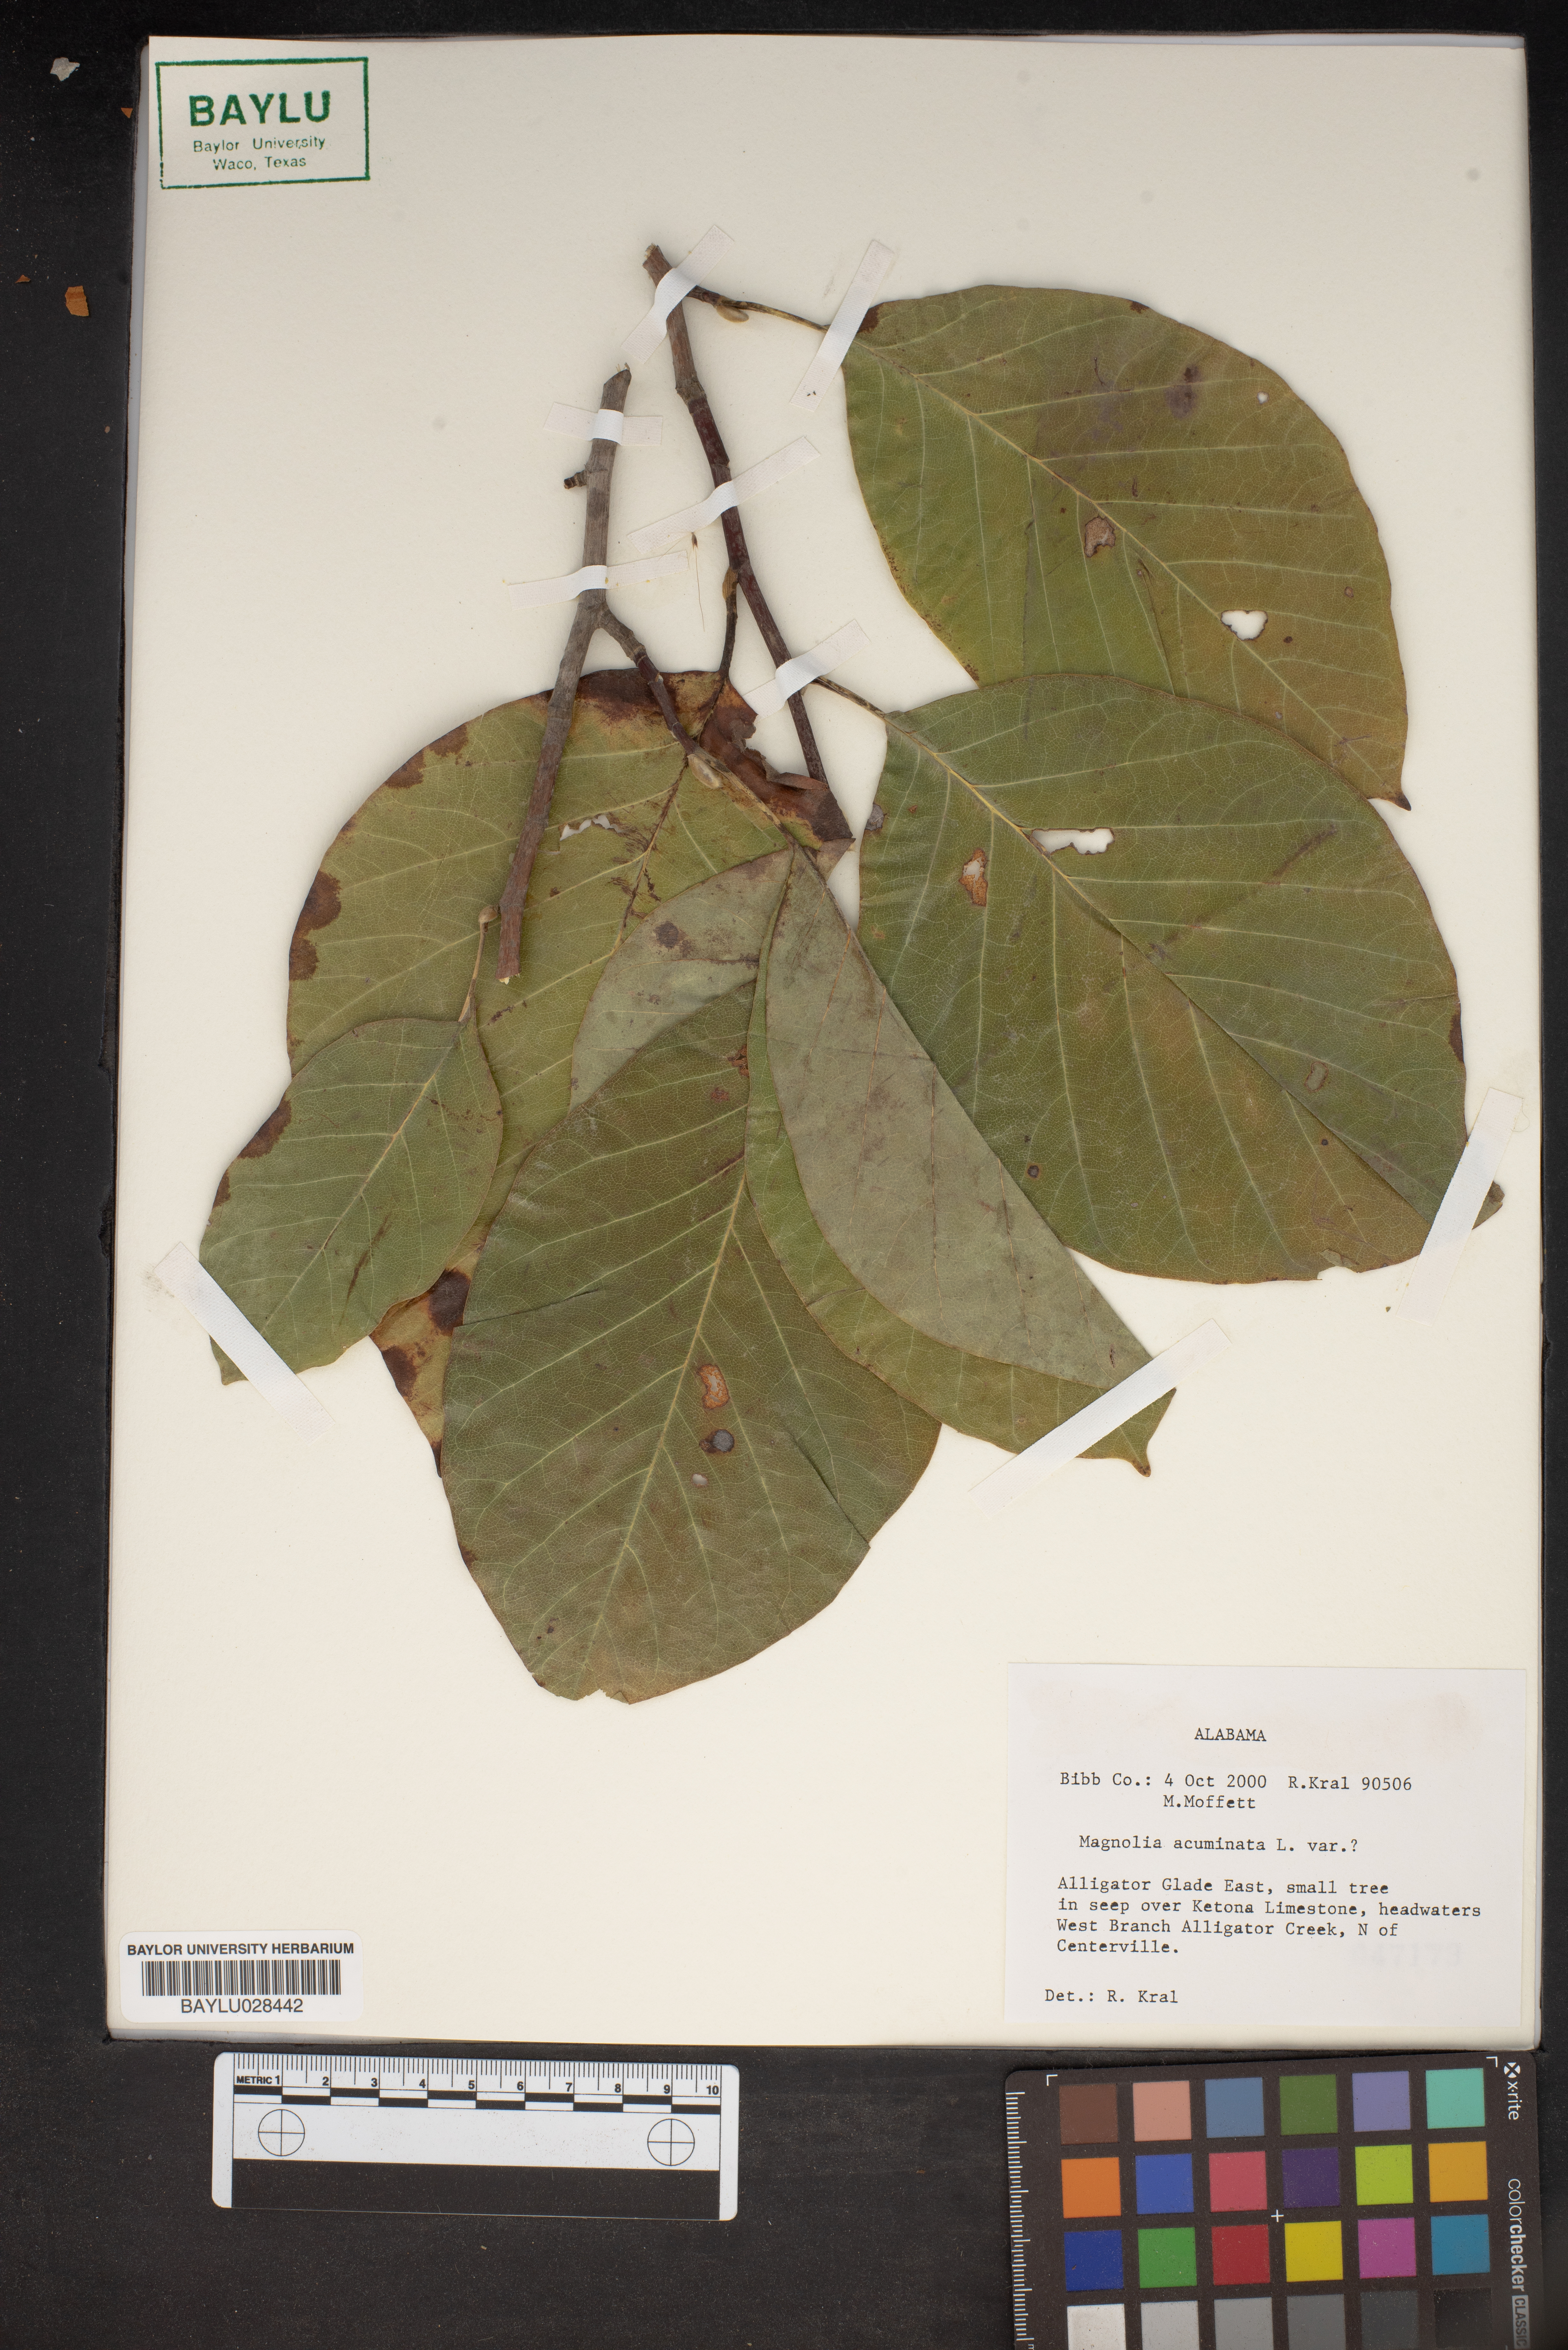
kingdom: Plantae
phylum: Tracheophyta
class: Magnoliopsida
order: Magnoliales
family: Magnoliaceae
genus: Magnolia
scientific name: Magnolia acuminata
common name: Cucumber magnolia
